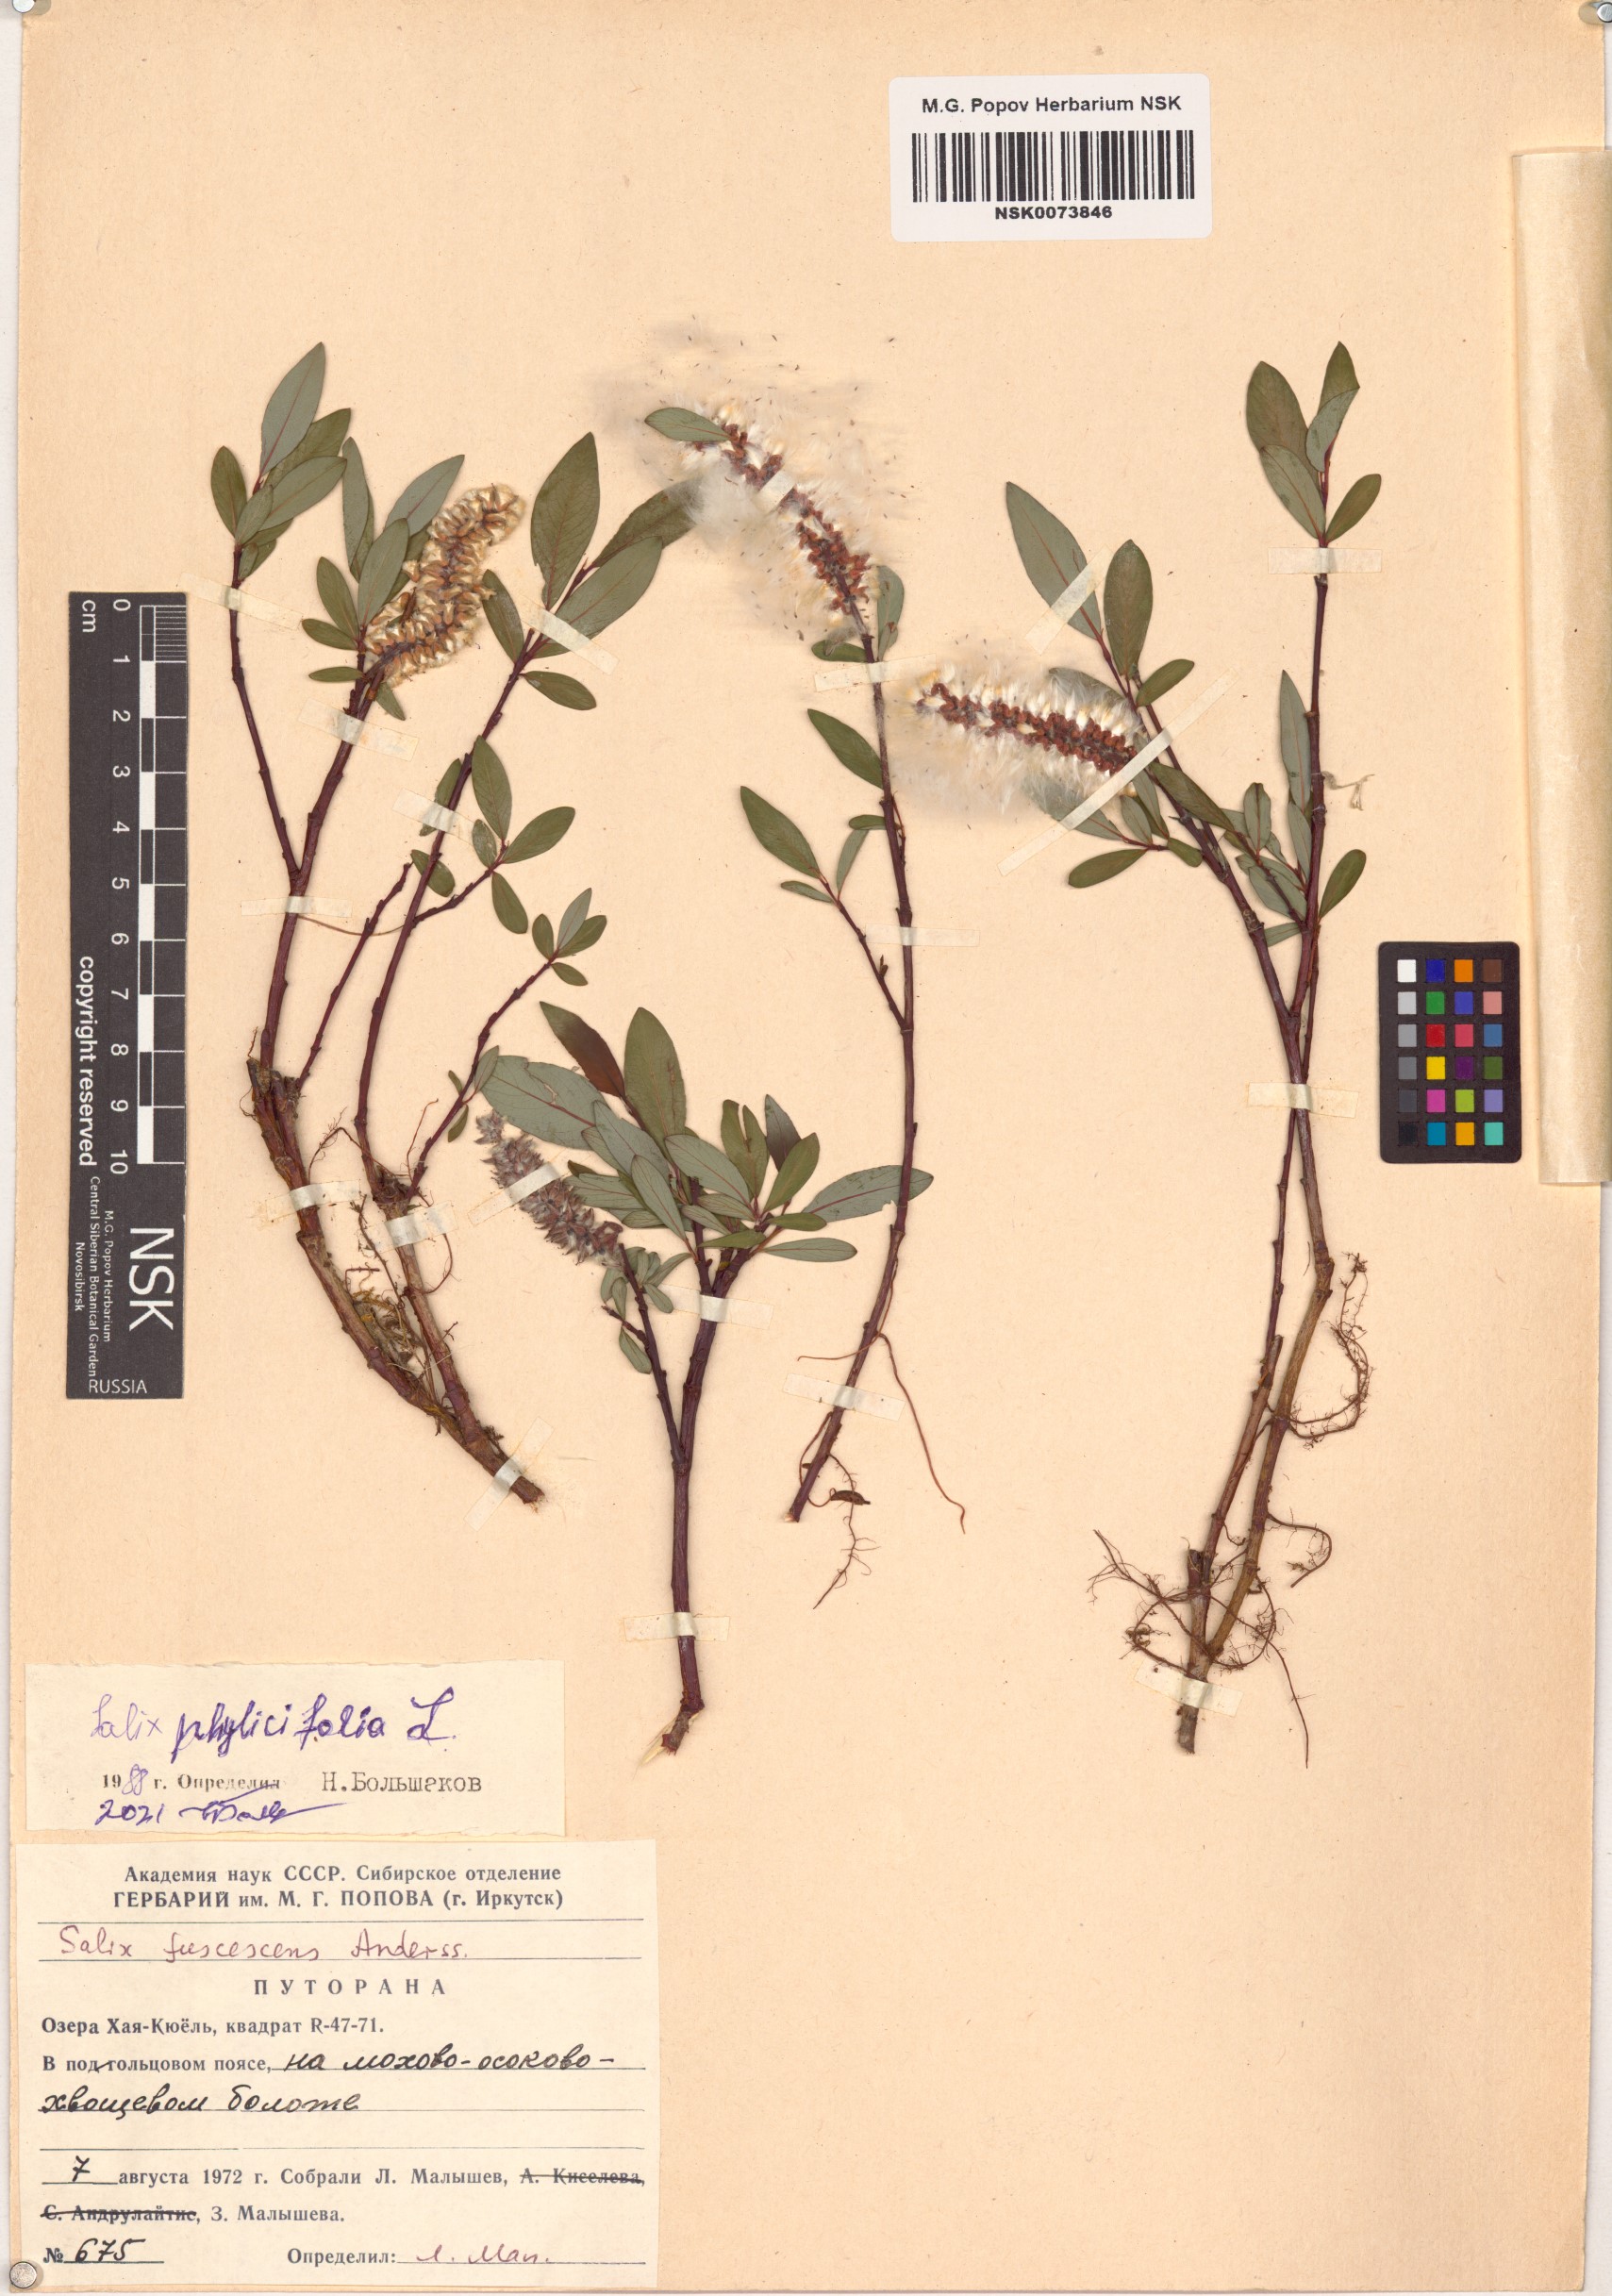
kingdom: Plantae
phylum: Tracheophyta
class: Magnoliopsida
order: Malpighiales
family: Salicaceae
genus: Salix
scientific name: Salix phylicifolia
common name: Tea-leaved willow
